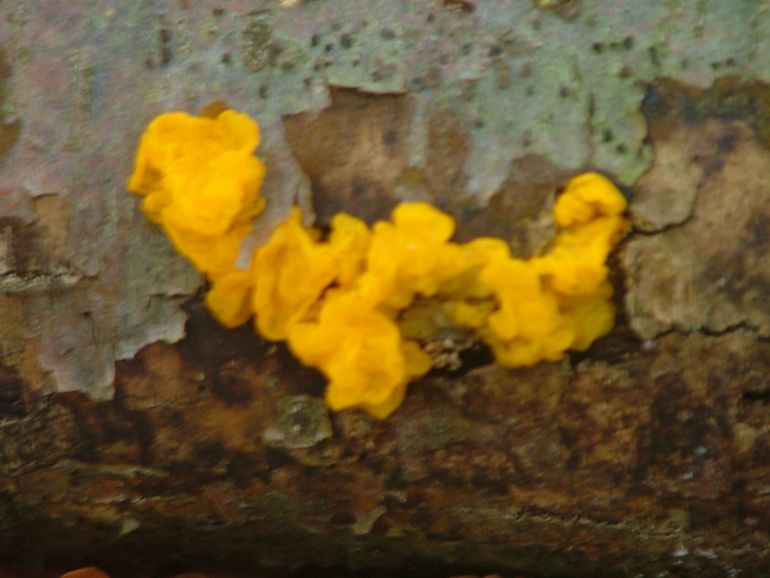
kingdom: Fungi
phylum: Basidiomycota
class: Tremellomycetes
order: Tremellales
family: Tremellaceae
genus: Tremella
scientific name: Tremella mesenterica
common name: gul bævresvamp
